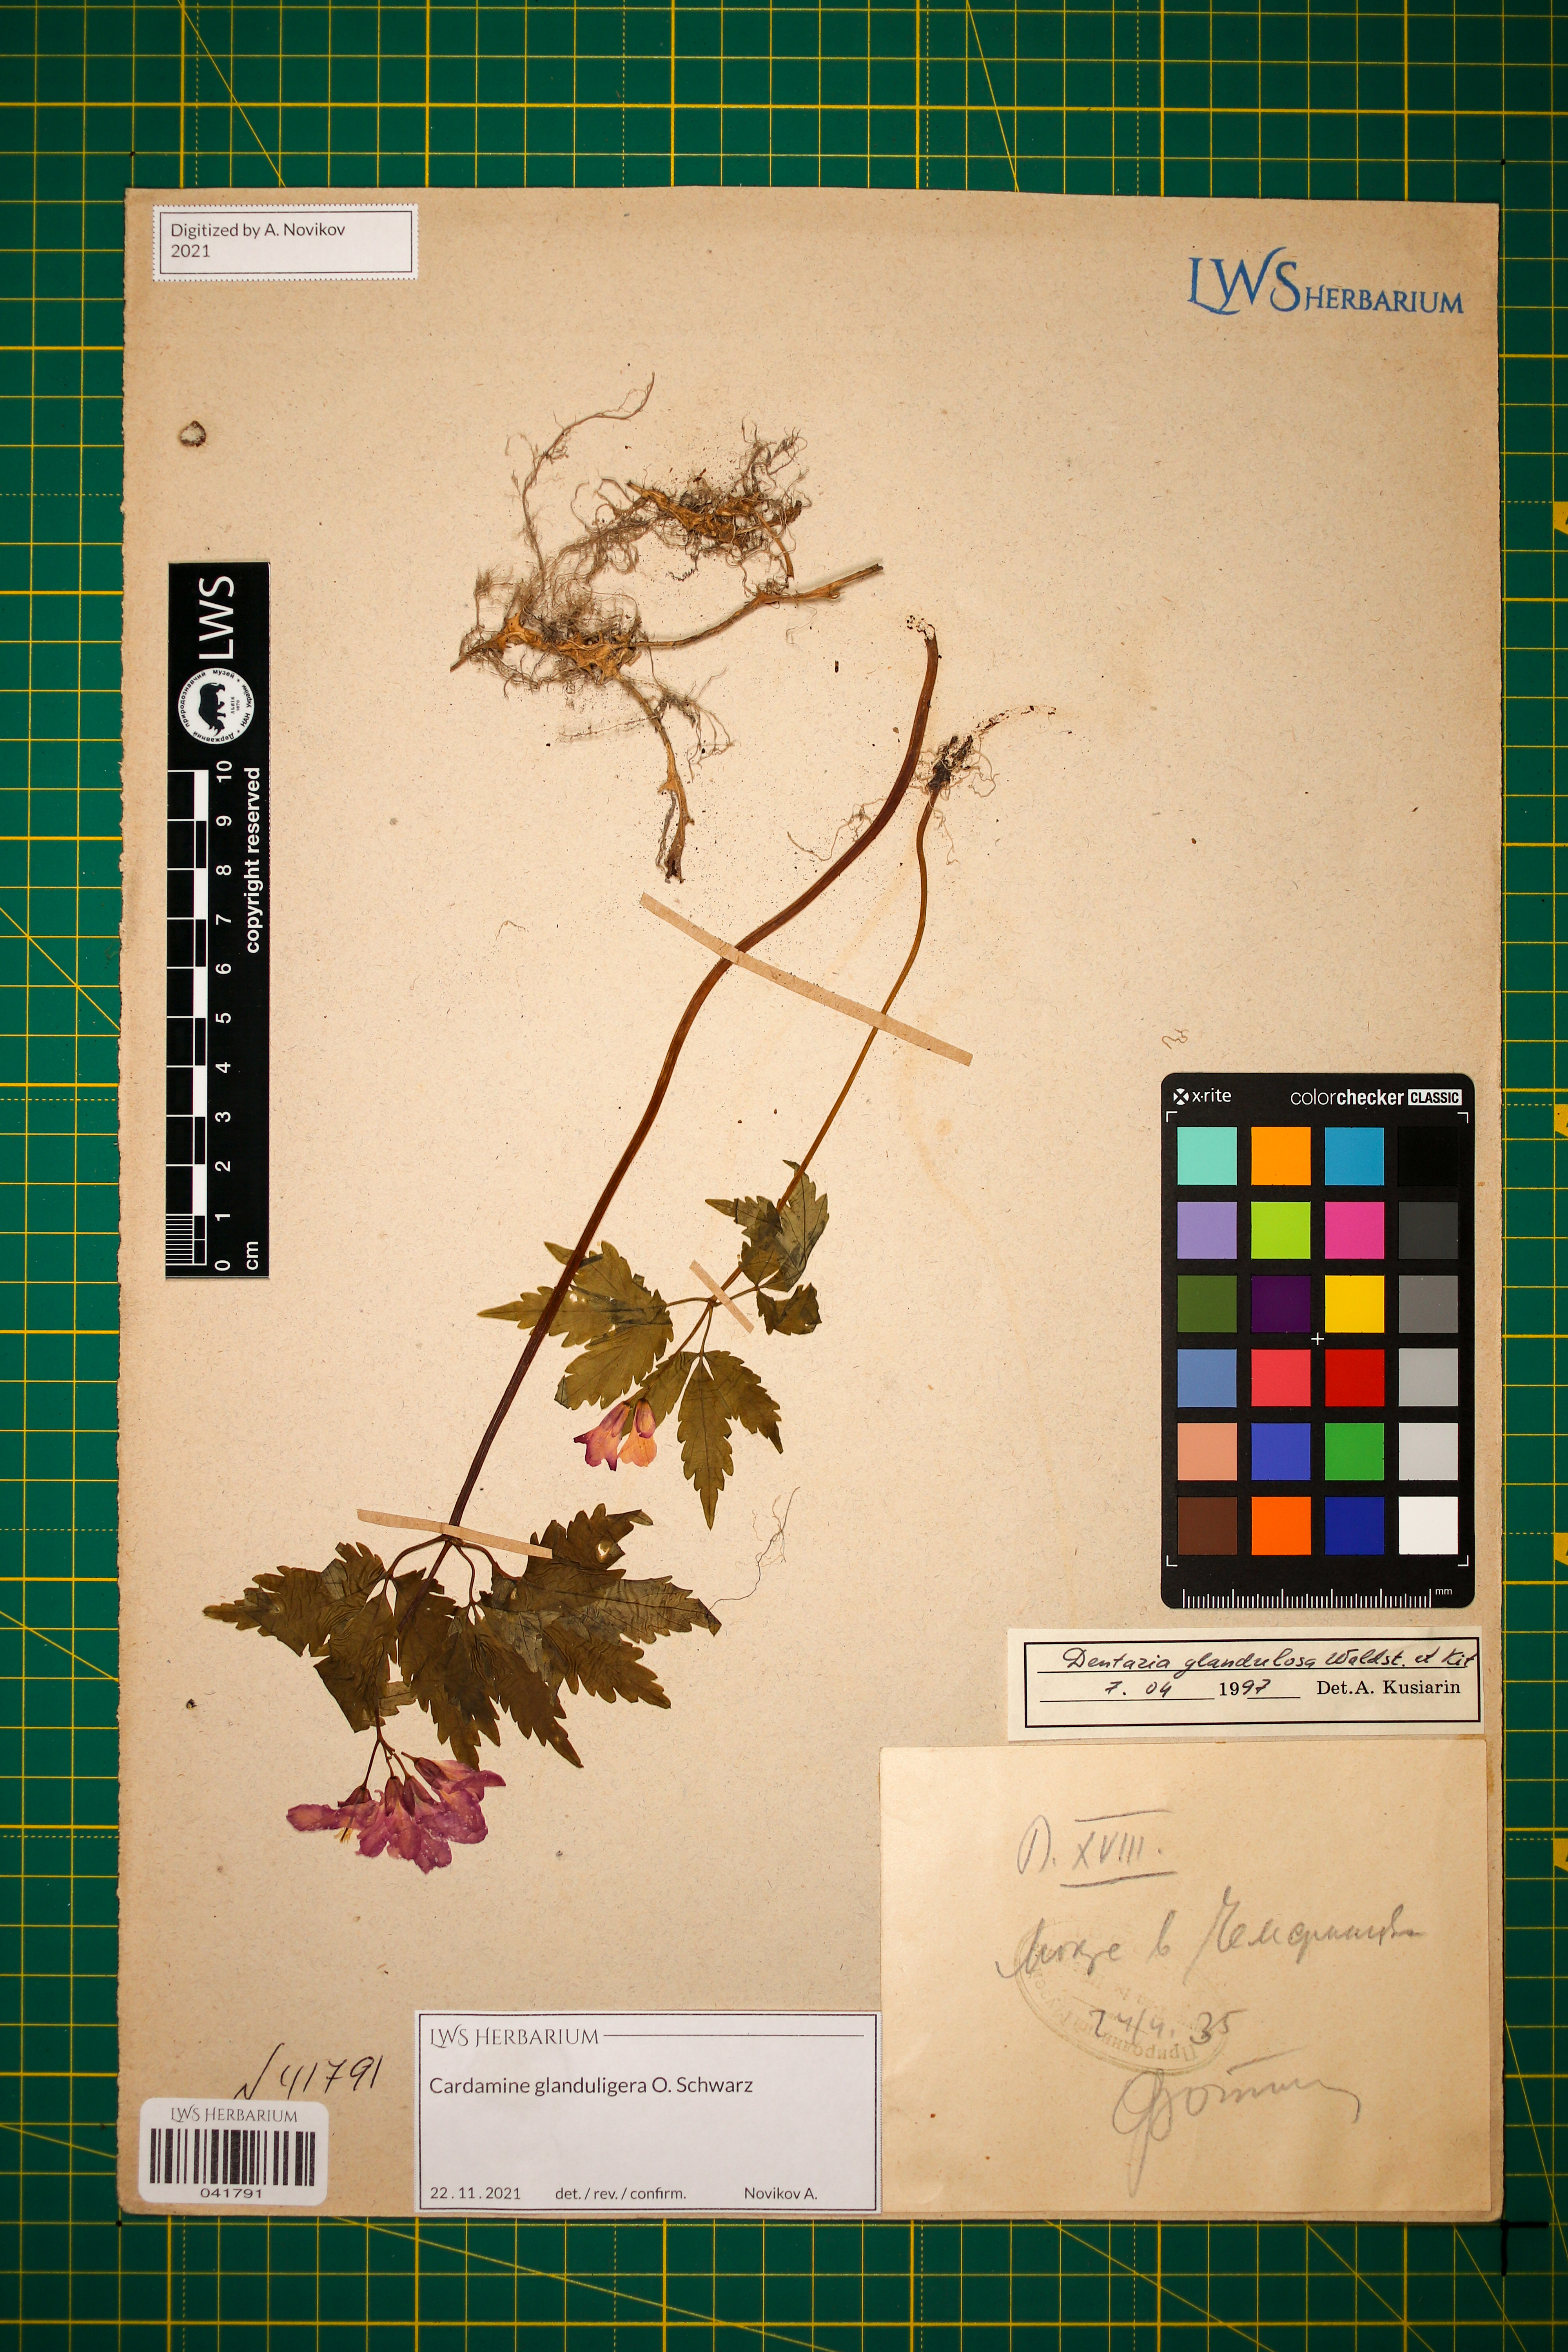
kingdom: Plantae
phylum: Tracheophyta
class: Magnoliopsida
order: Brassicales
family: Brassicaceae
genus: Cardamine
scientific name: Cardamine glanduligera
